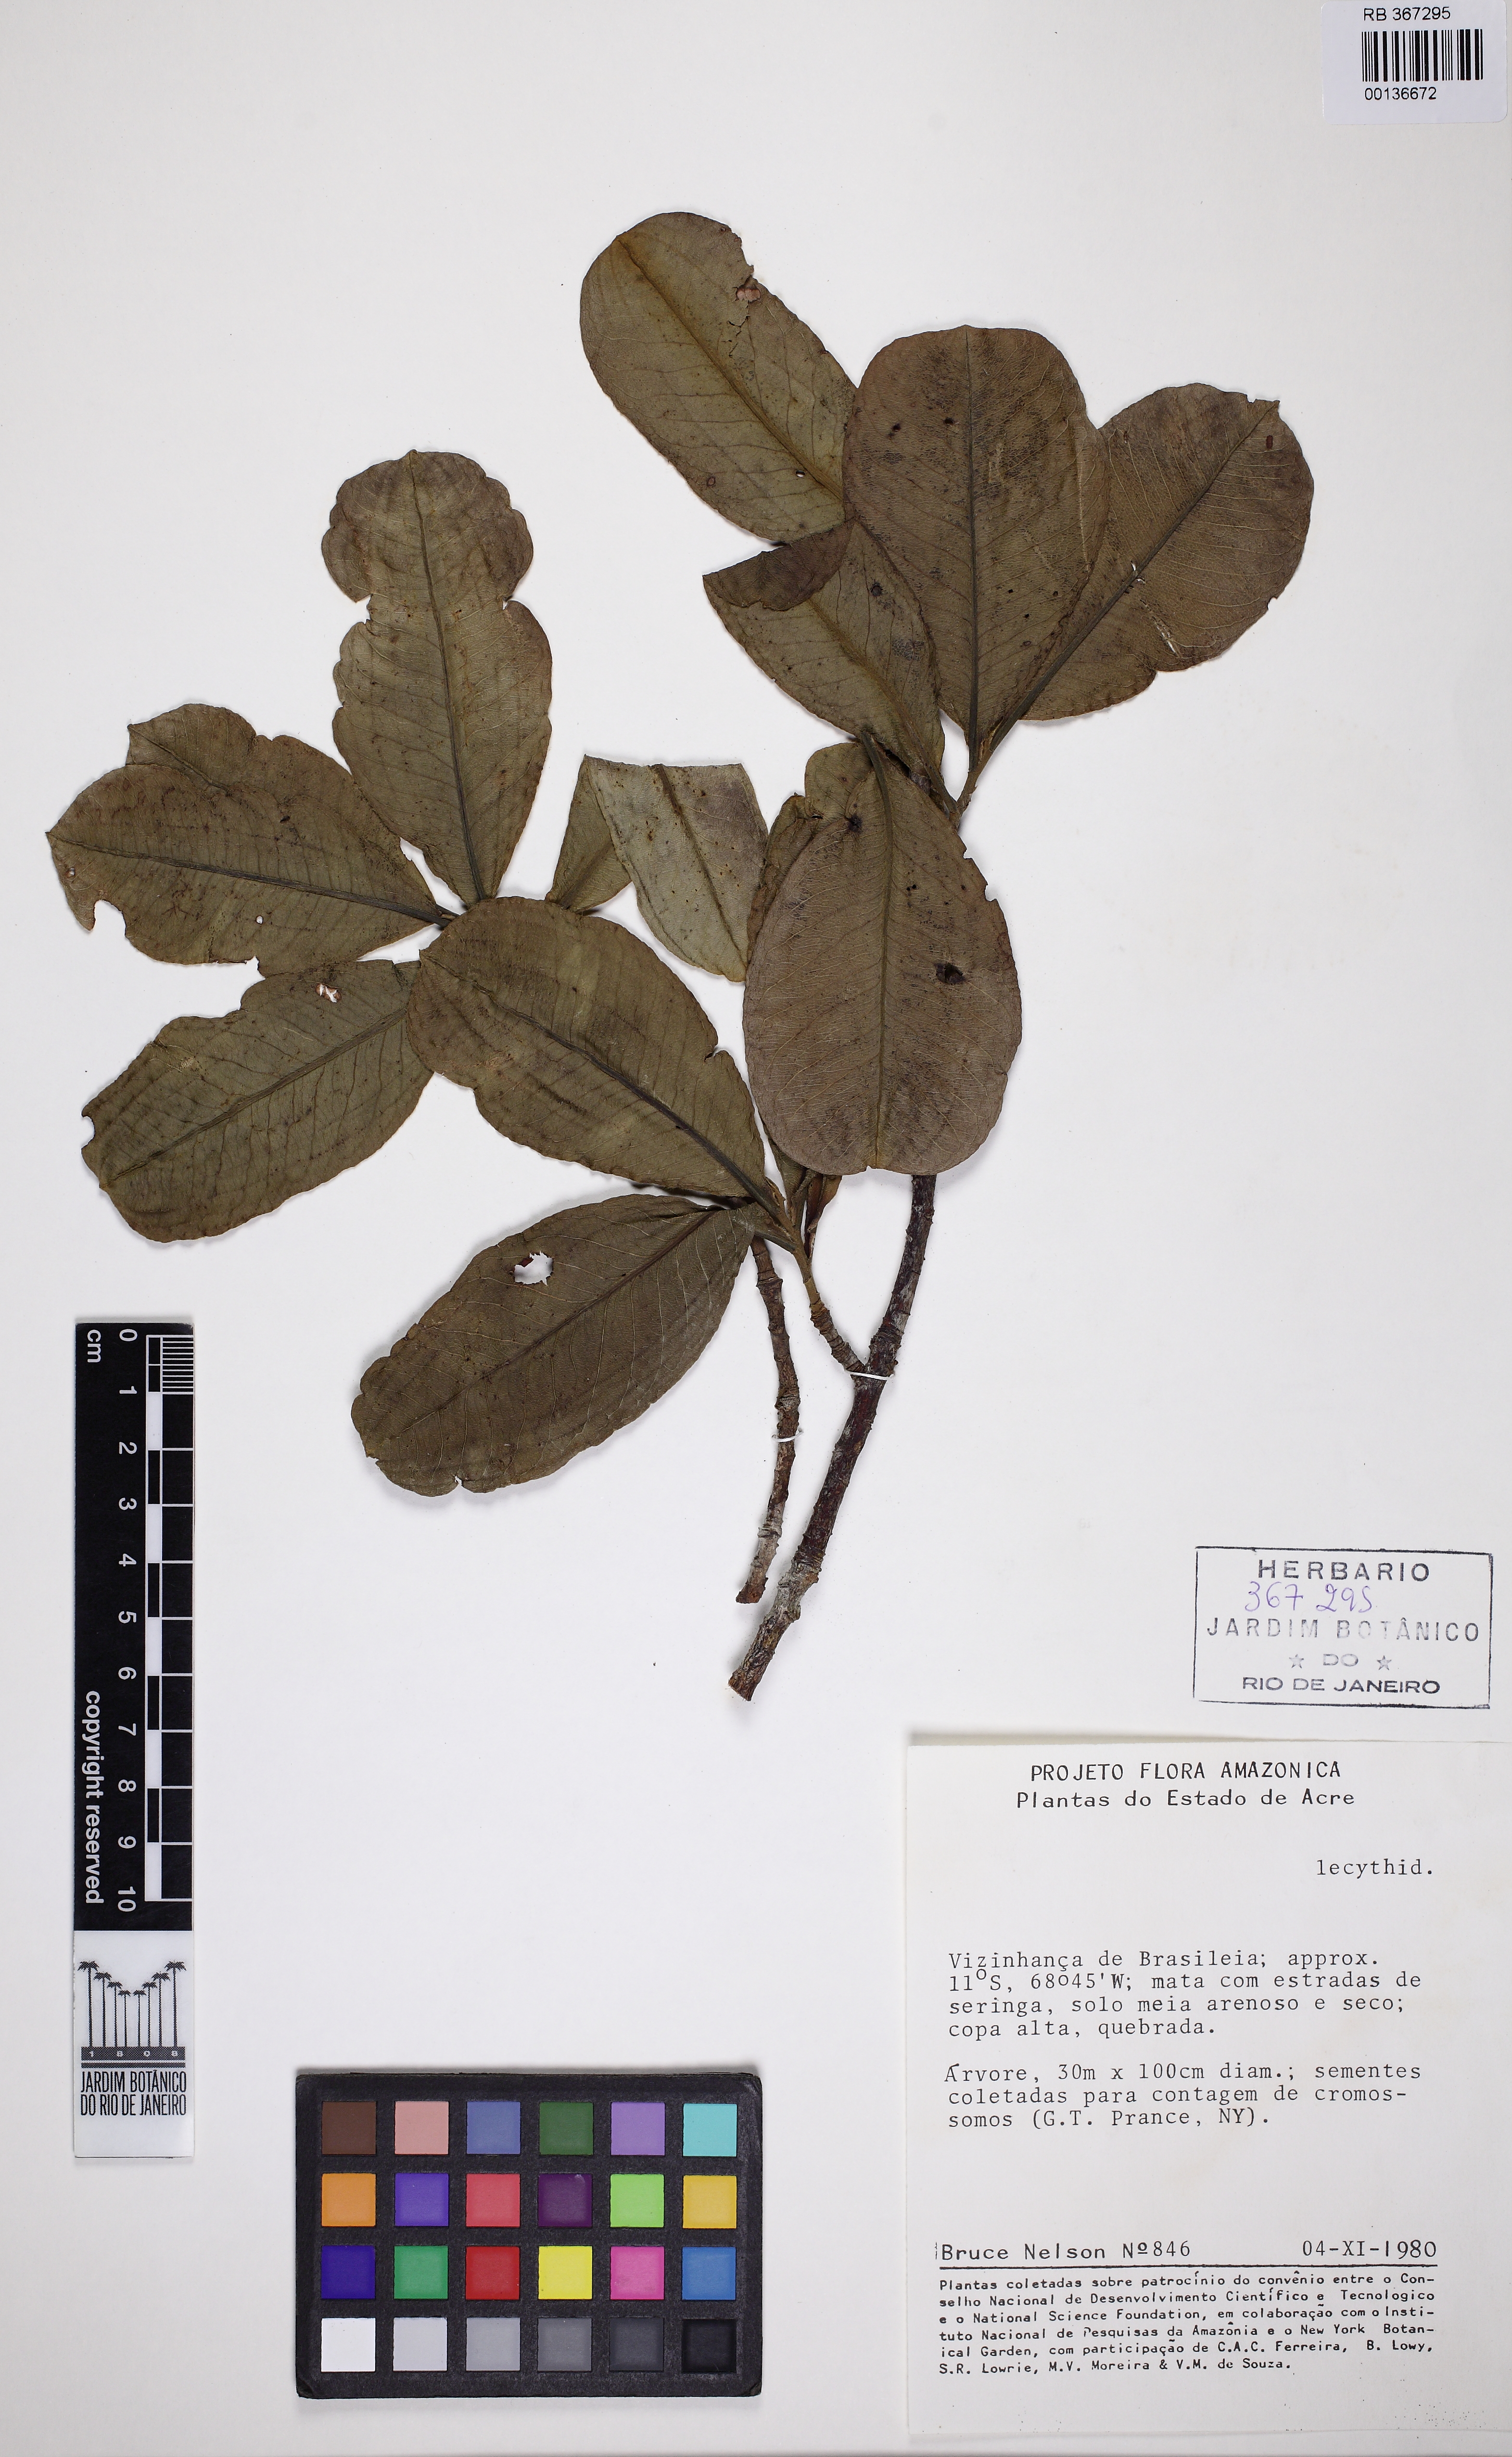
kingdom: Plantae
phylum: Tracheophyta
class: Magnoliopsida
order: Ericales
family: Lecythidaceae
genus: Couratari
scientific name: Couratari macrosperma
